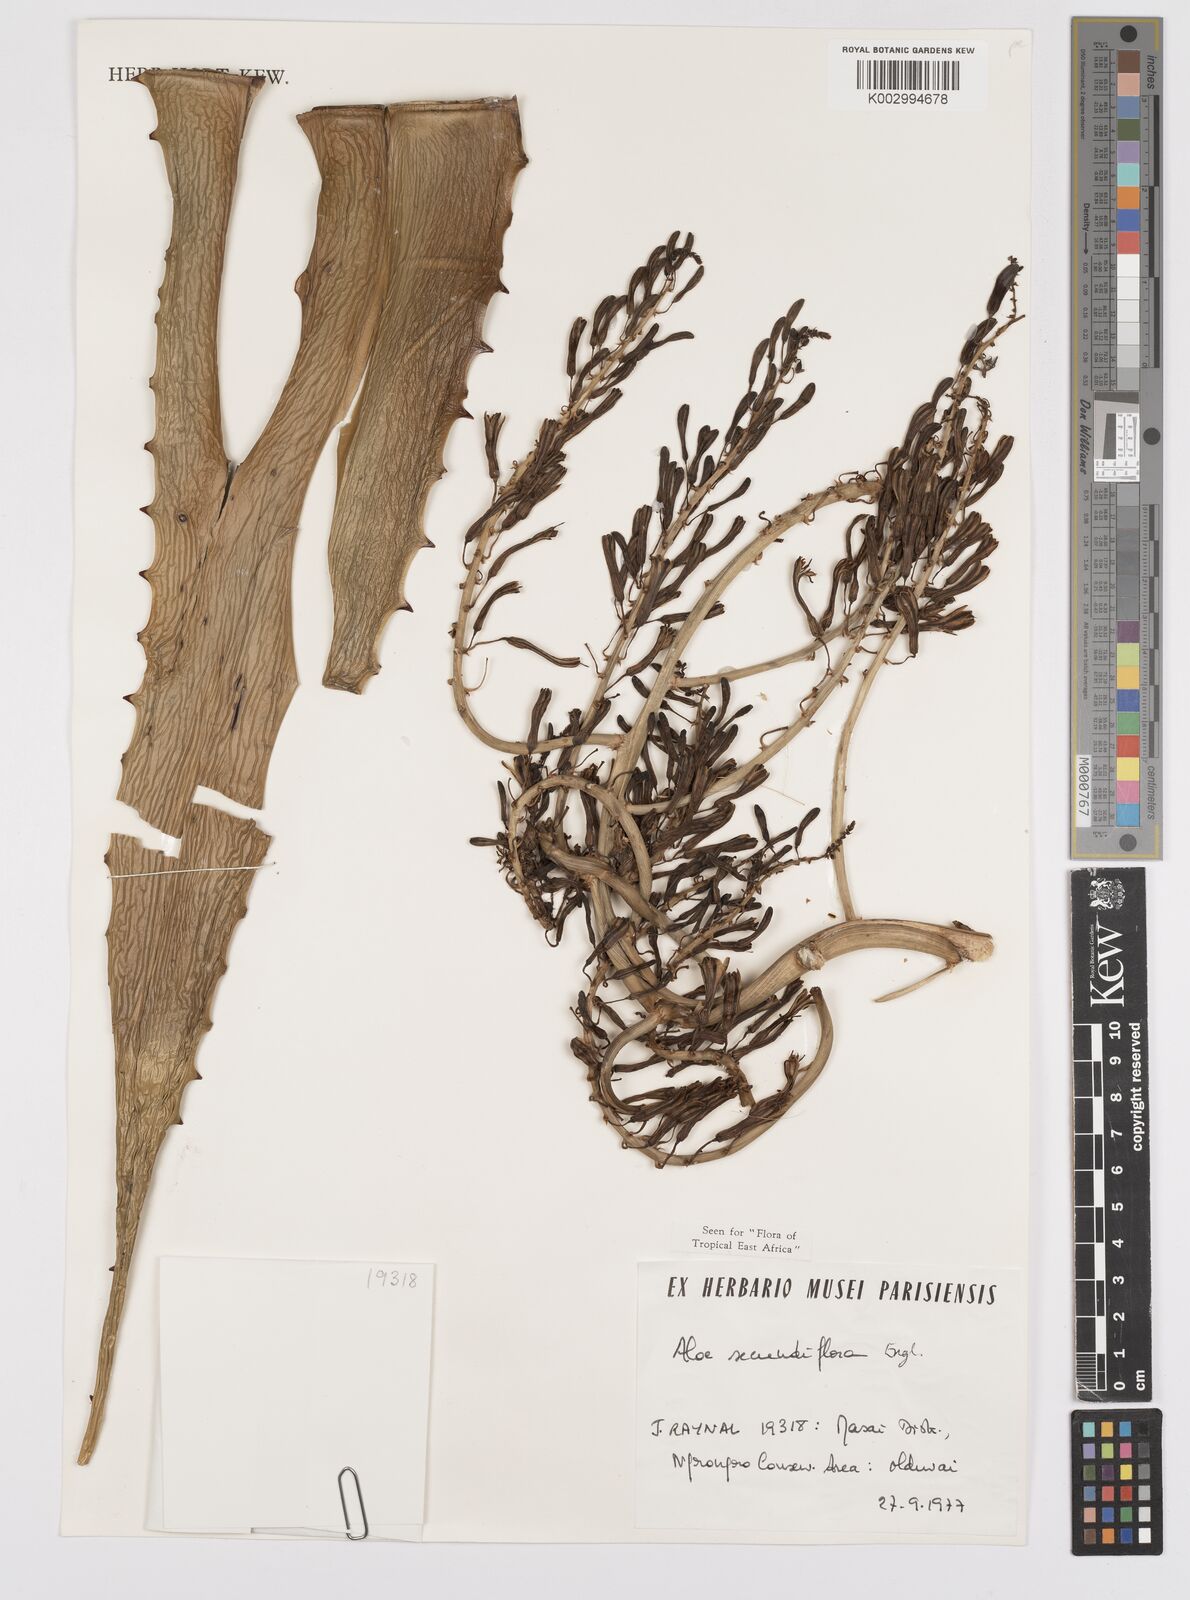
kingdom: Plantae
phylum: Tracheophyta
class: Liliopsida
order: Asparagales
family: Asphodelaceae
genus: Aloe
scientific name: Aloe secundiflora
